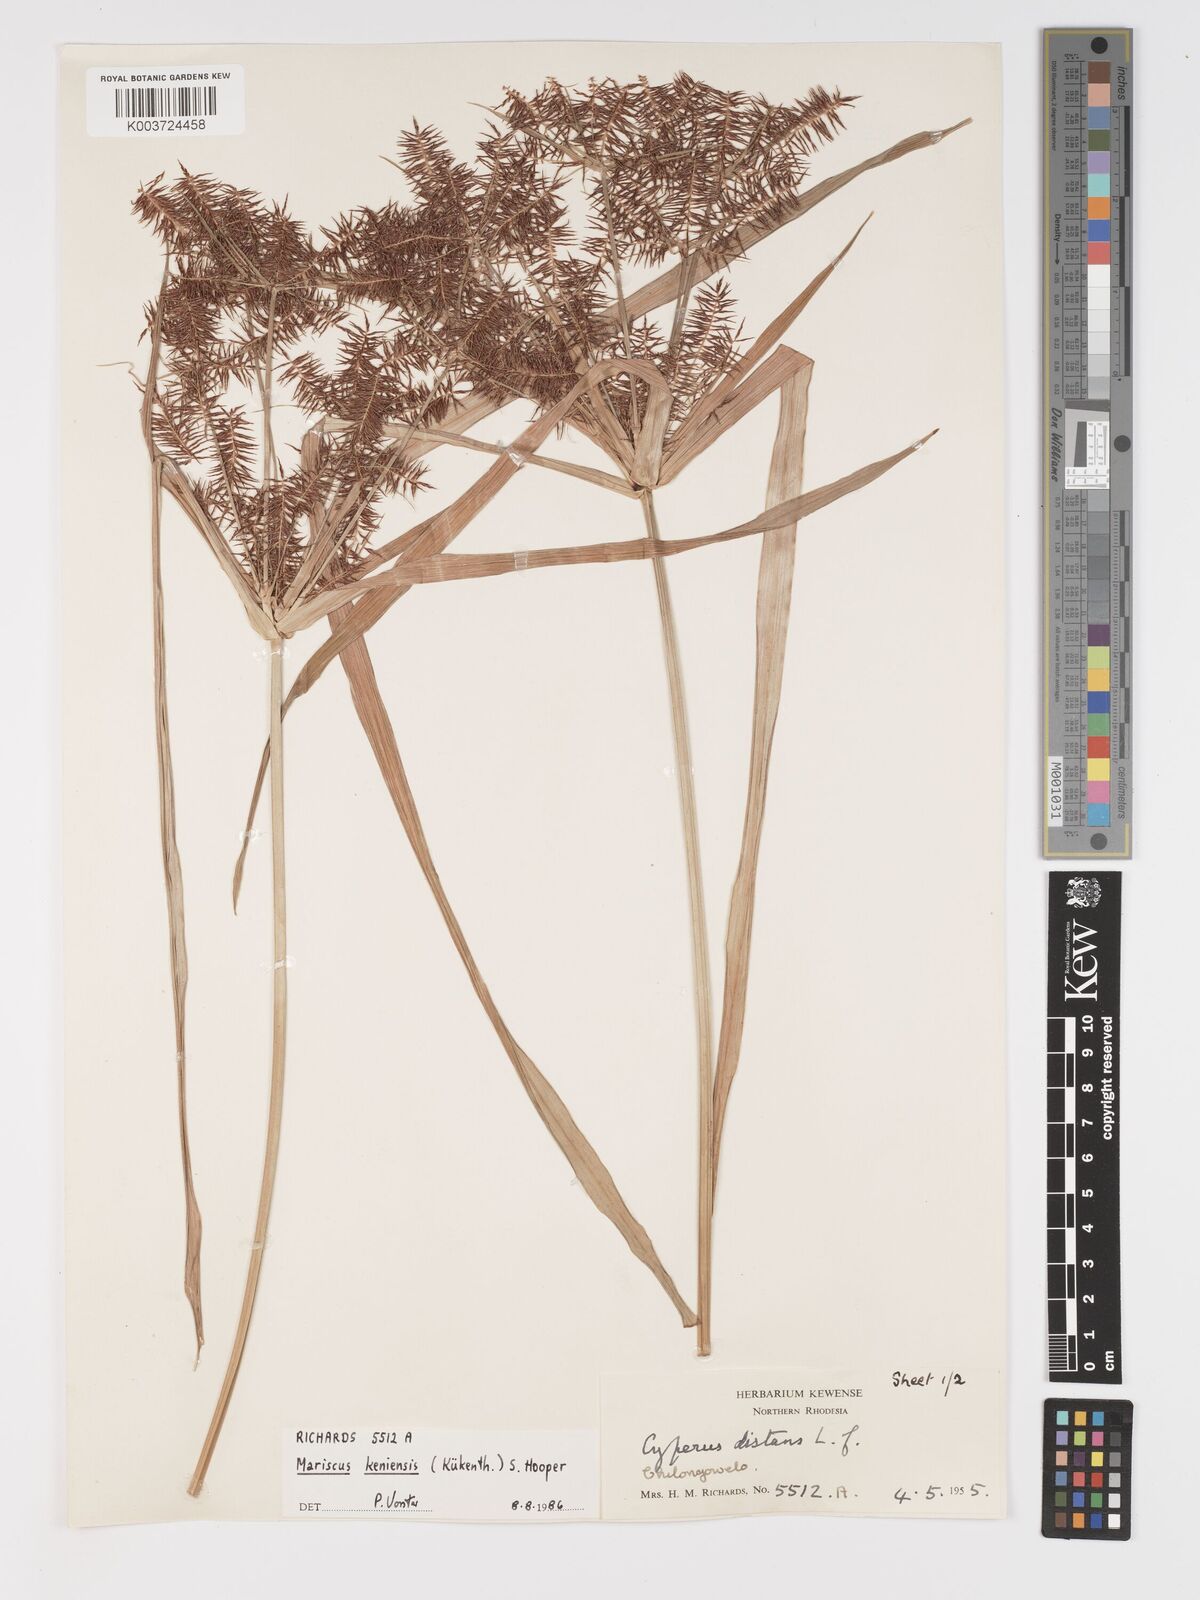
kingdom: Plantae
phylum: Tracheophyta
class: Liliopsida
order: Poales
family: Cyperaceae
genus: Cyperus
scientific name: Cyperus
